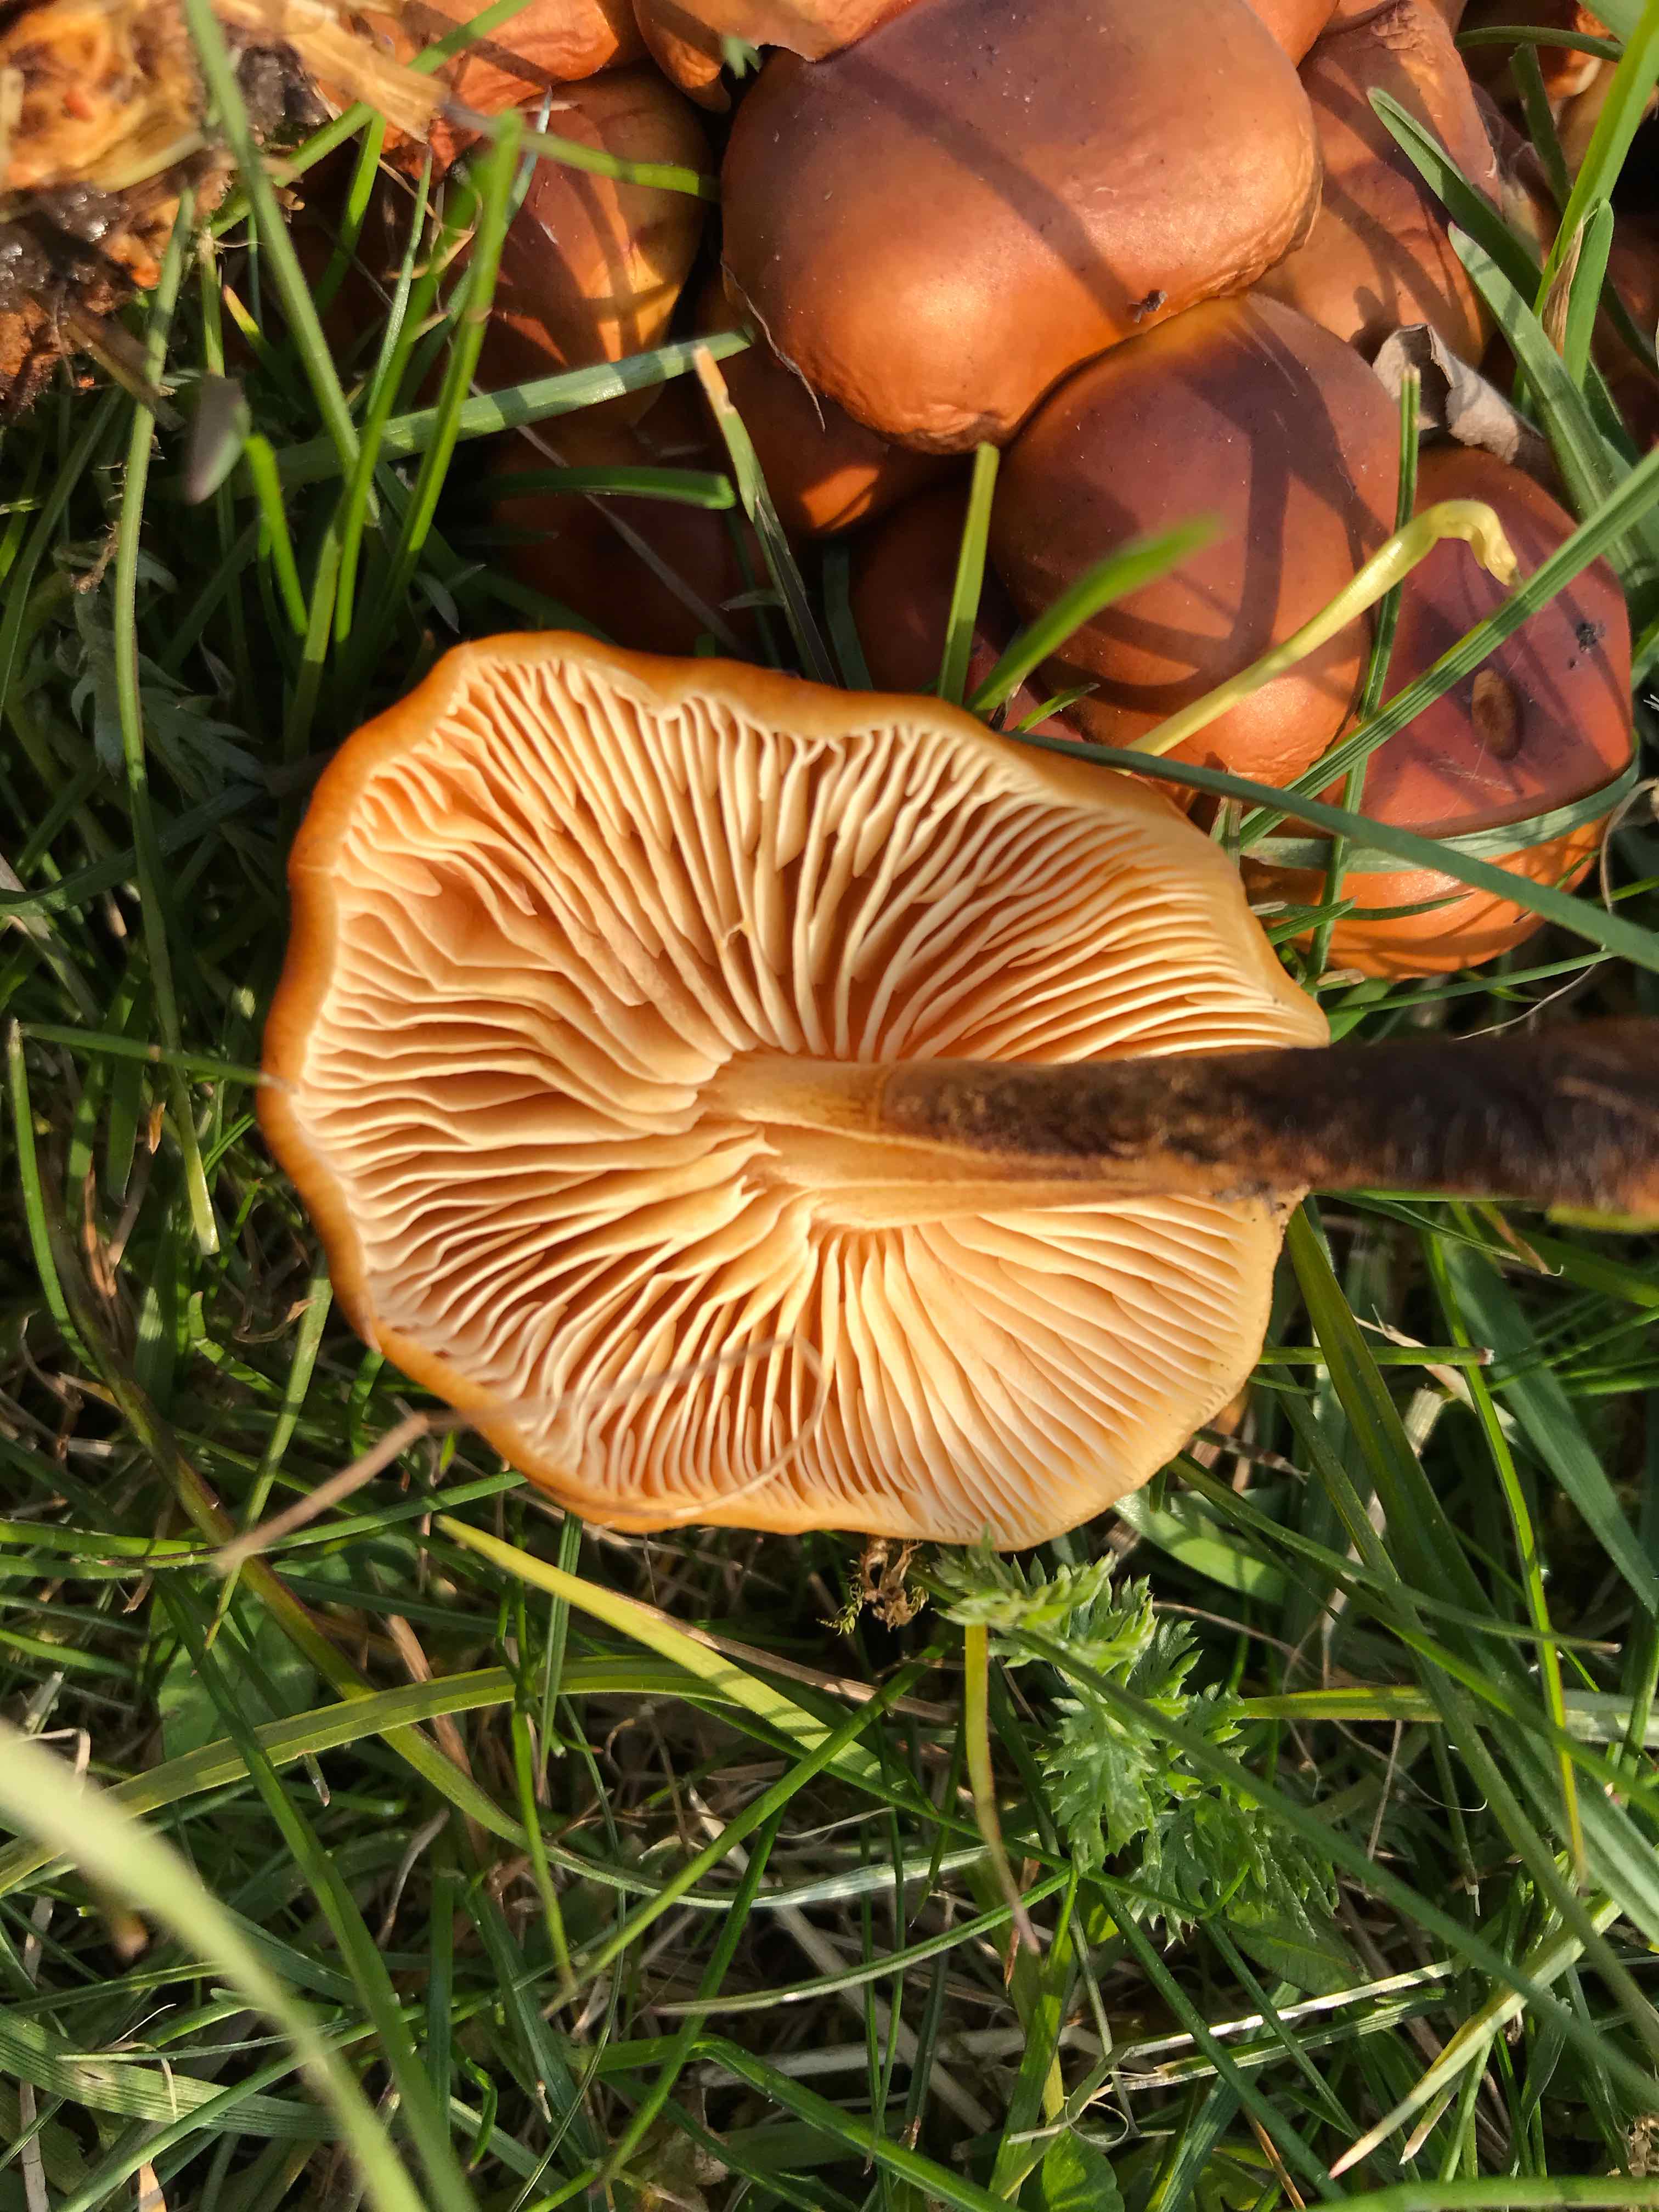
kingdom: Fungi
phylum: Basidiomycota
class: Agaricomycetes
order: Agaricales
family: Physalacriaceae
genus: Flammulina
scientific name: Flammulina
